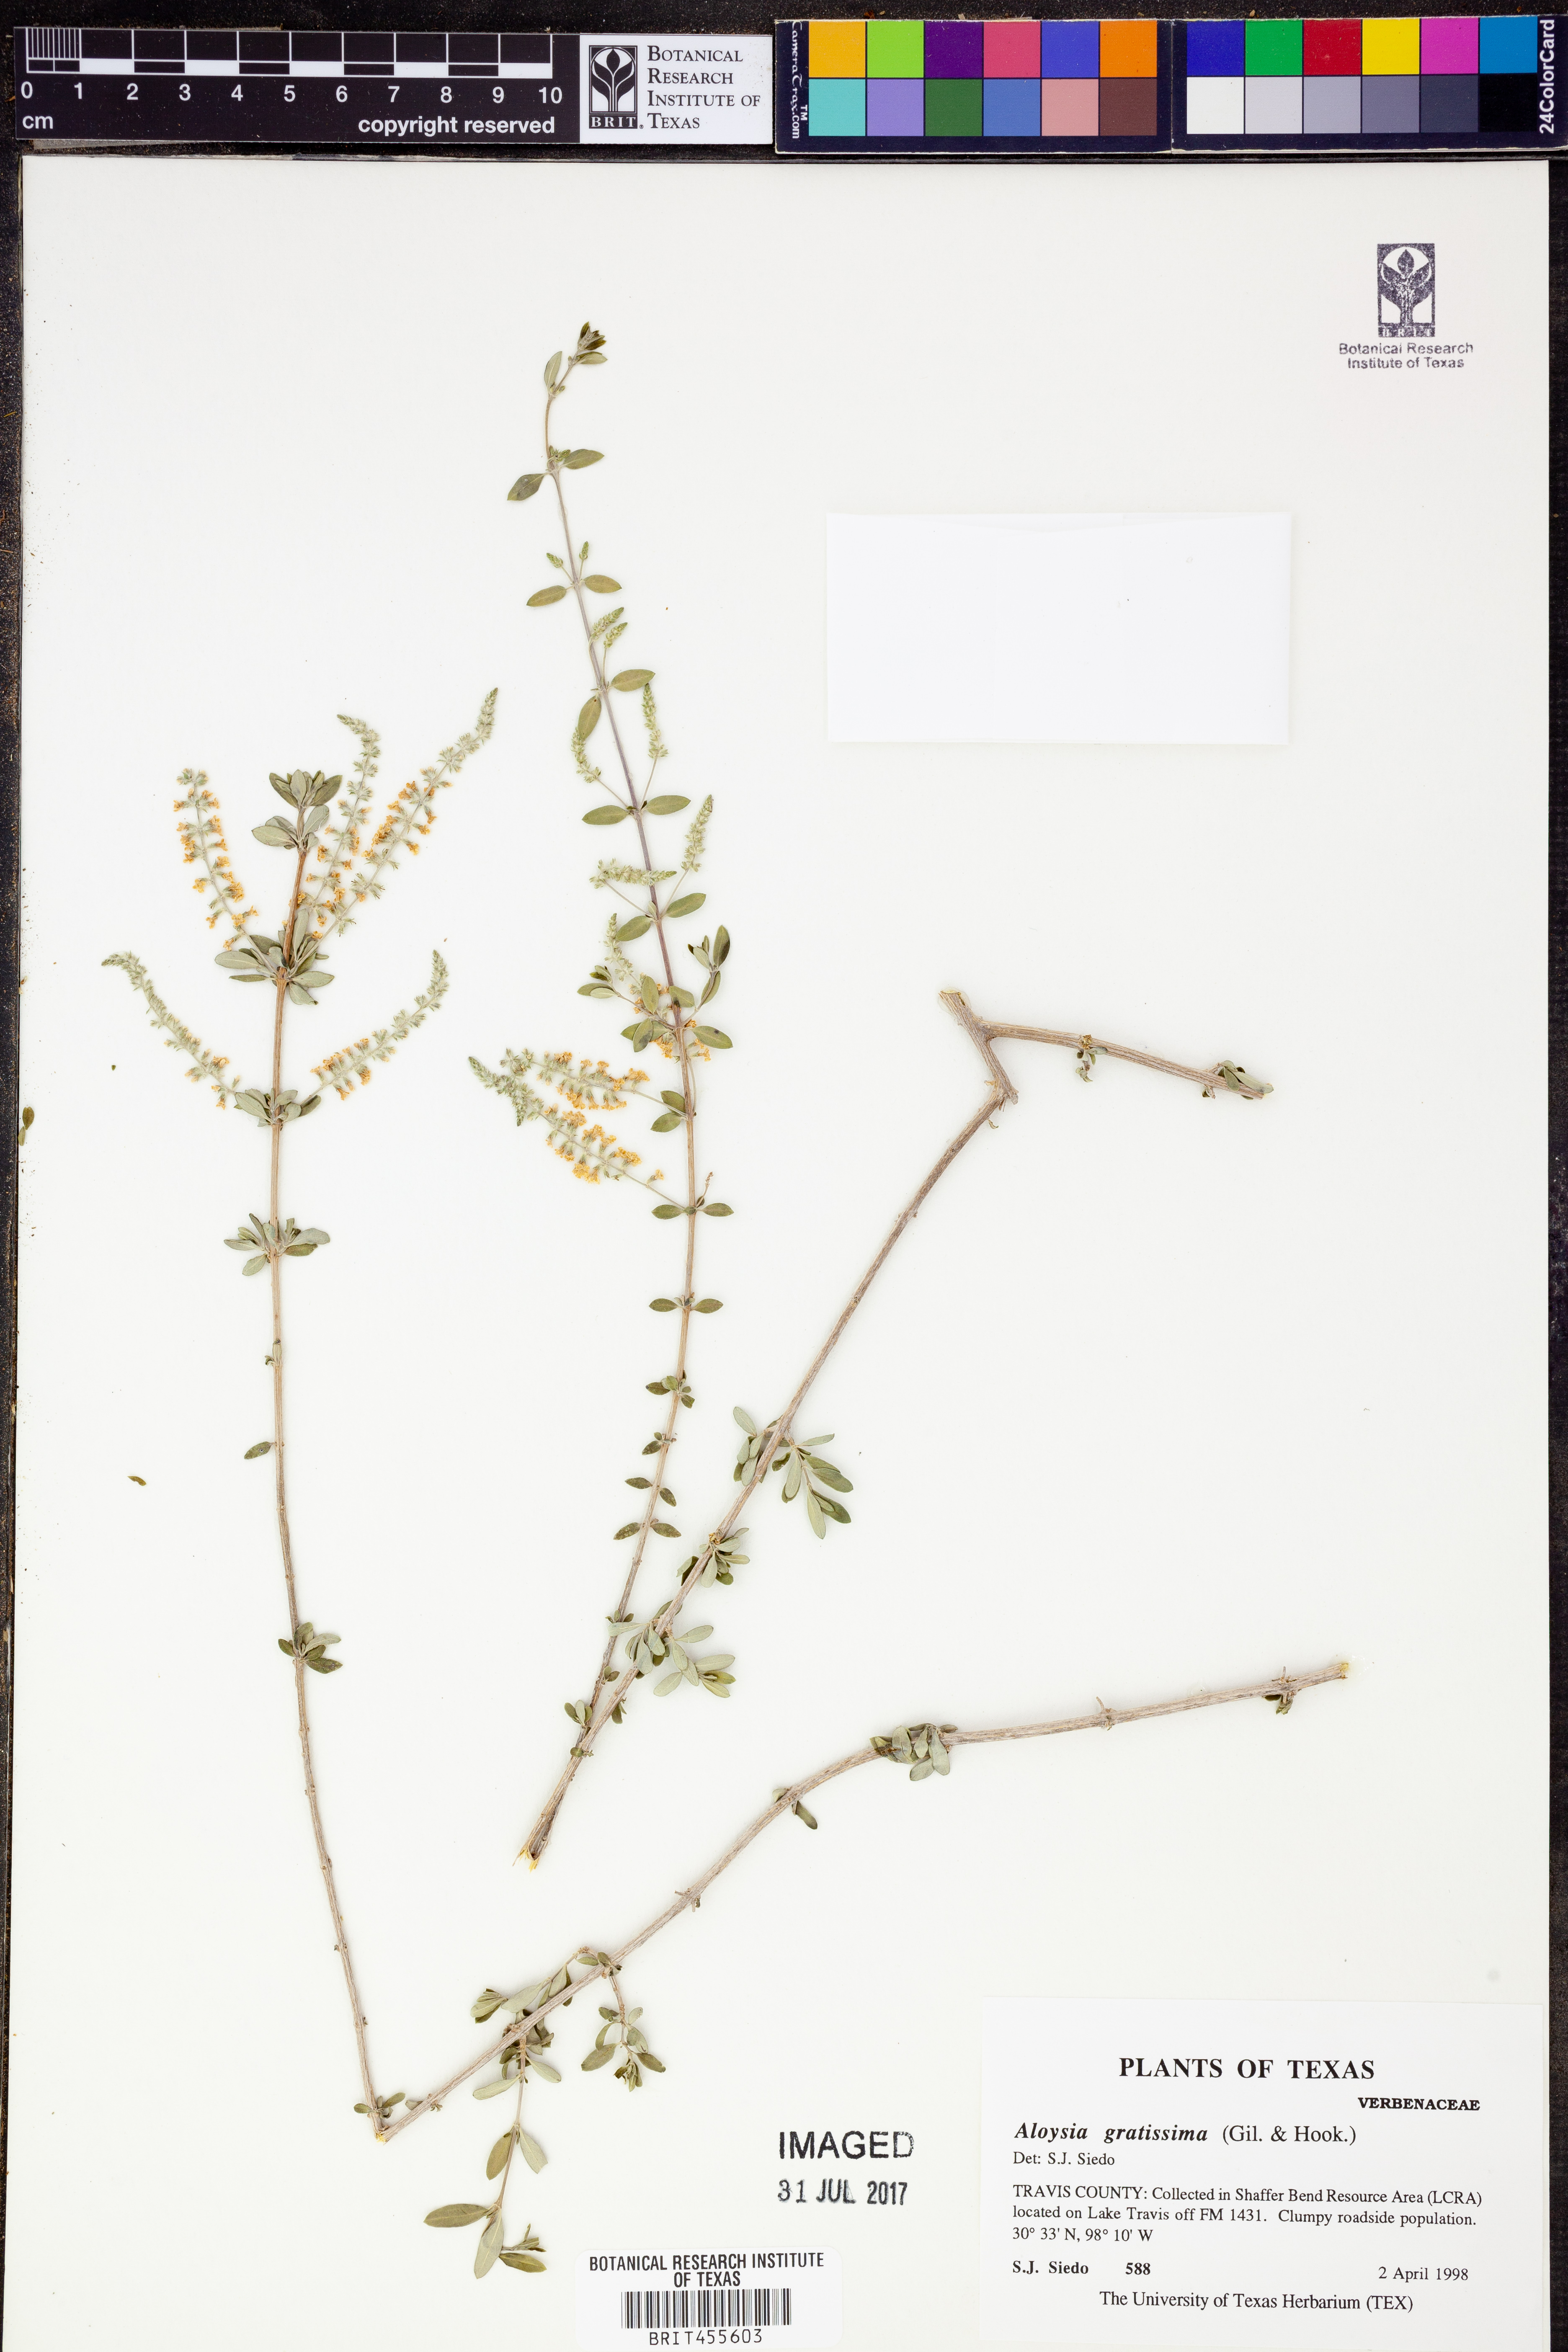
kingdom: Plantae
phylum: Tracheophyta
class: Magnoliopsida
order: Lamiales
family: Verbenaceae
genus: Aloysia
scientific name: Aloysia gratissima
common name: Common bee-brush
